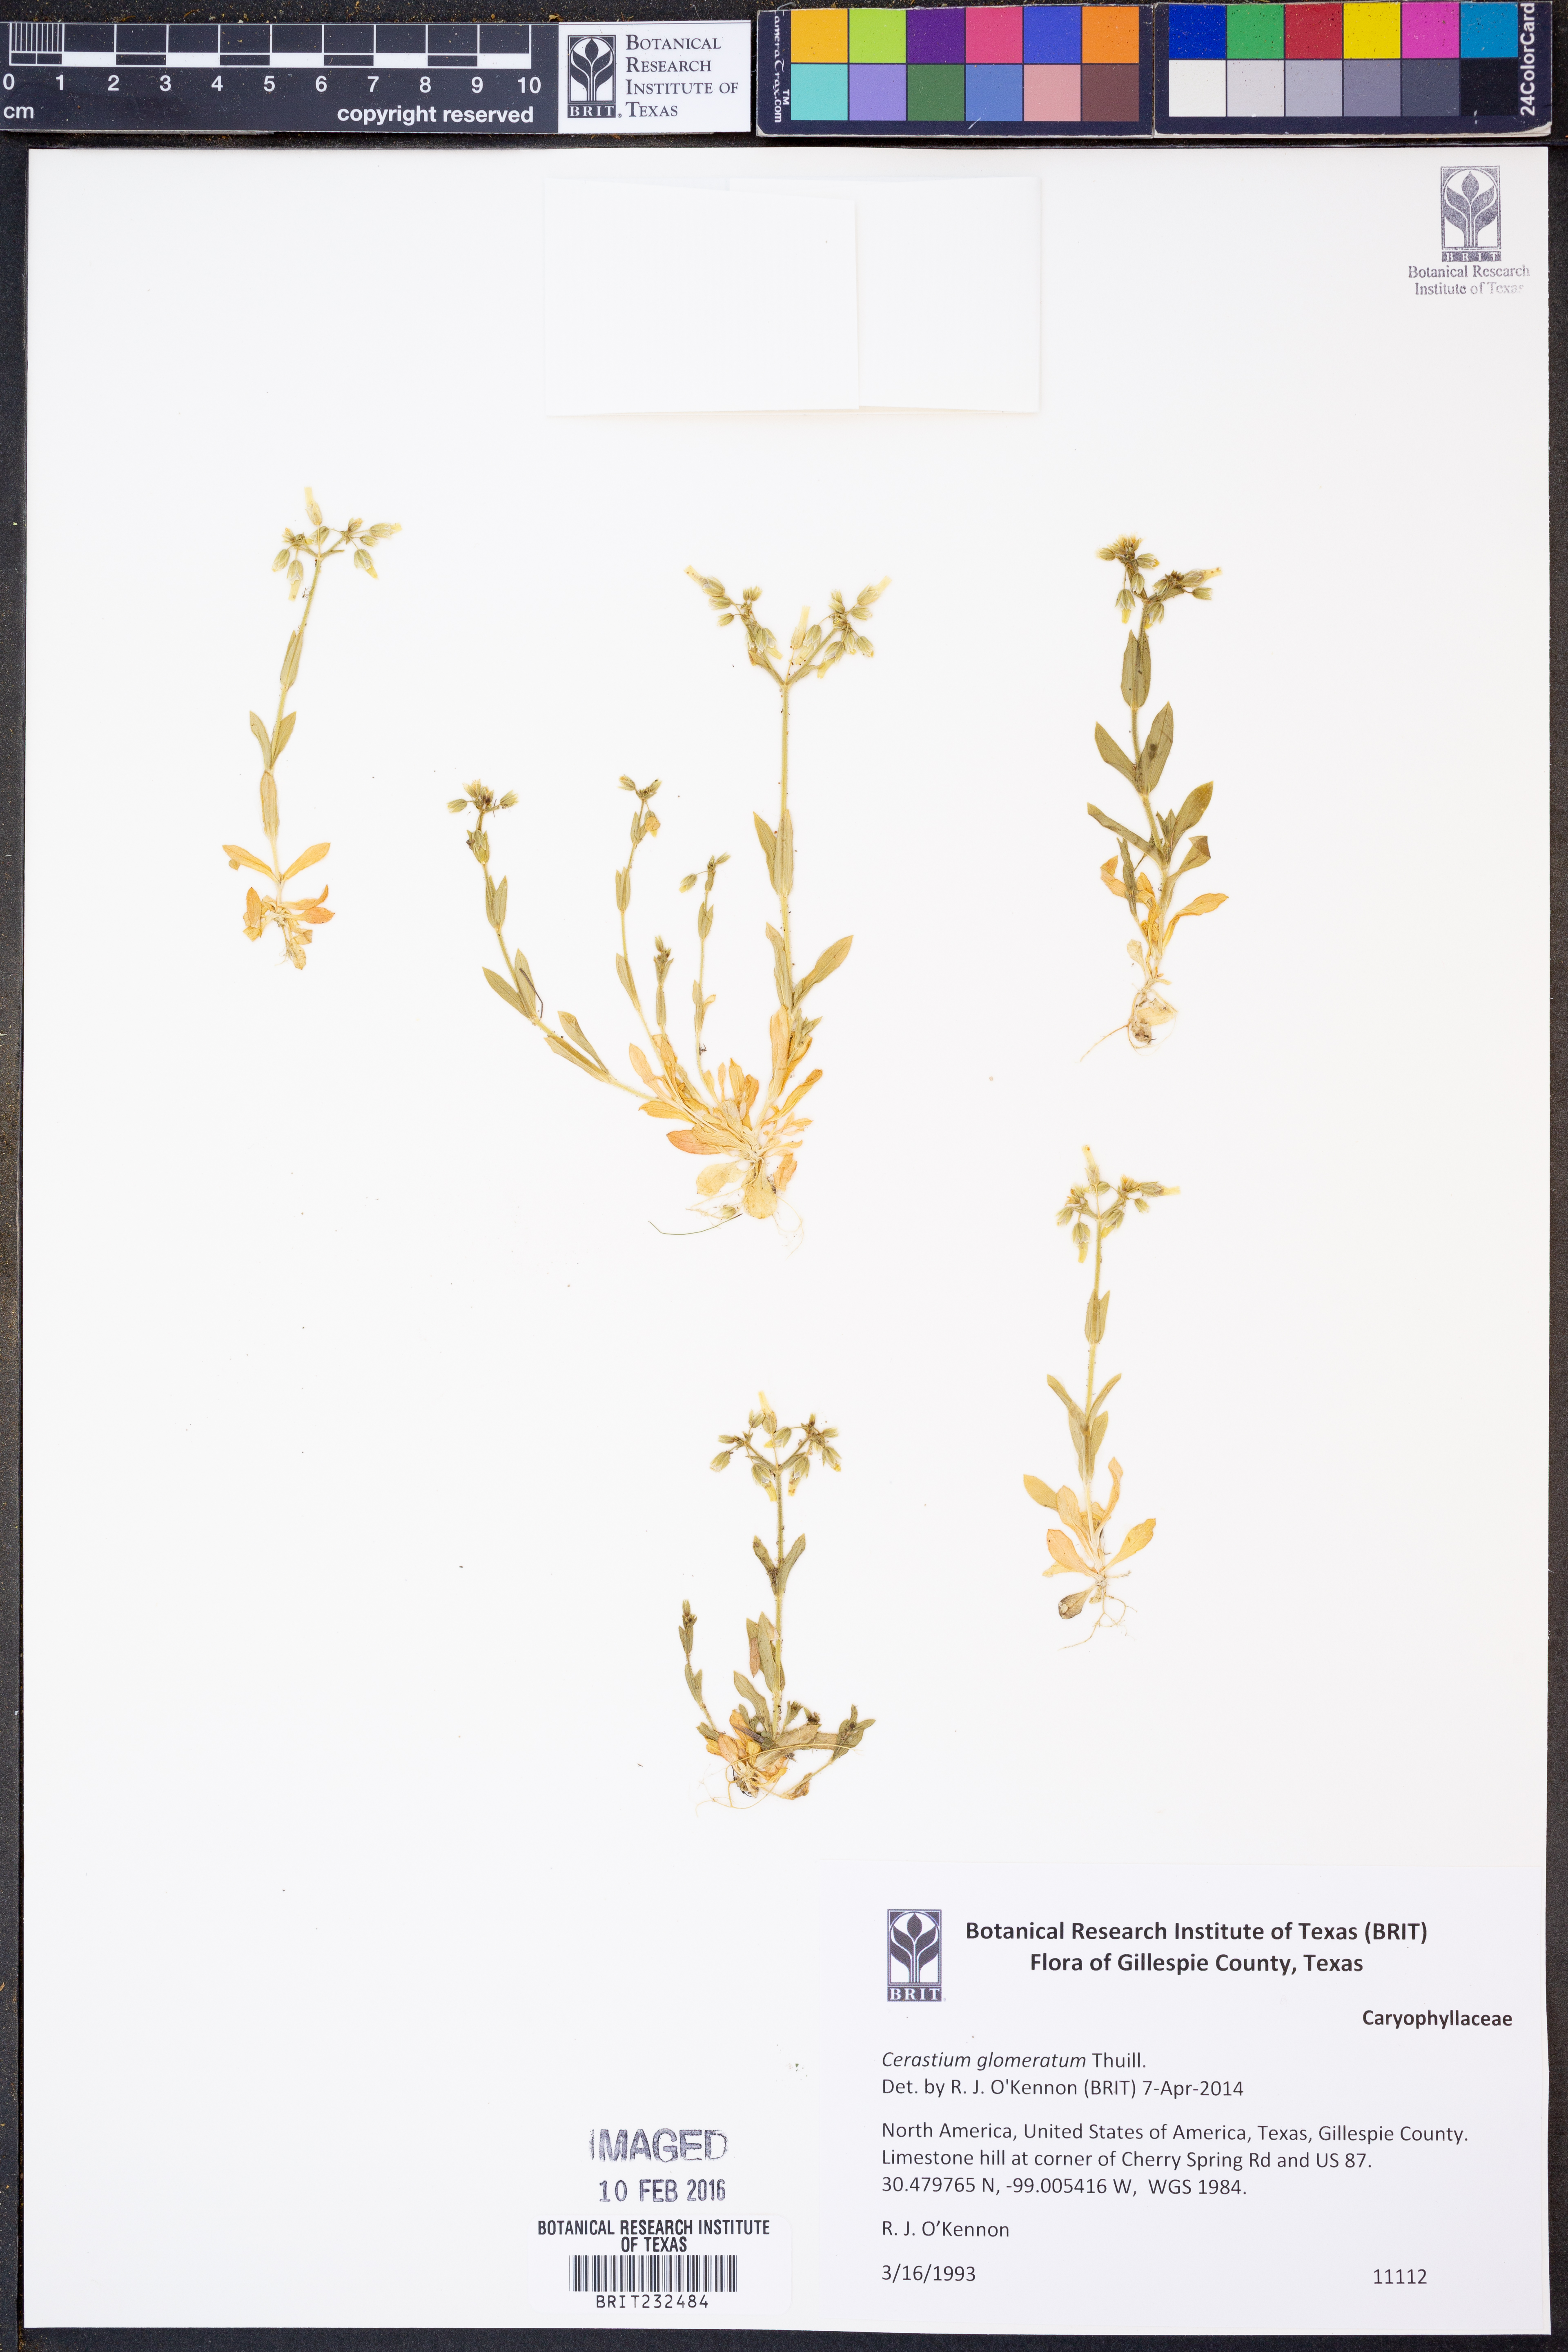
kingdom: Plantae
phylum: Tracheophyta
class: Magnoliopsida
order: Caryophyllales
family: Caryophyllaceae
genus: Cerastium
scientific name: Cerastium glomeratum
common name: Sticky chickweed
